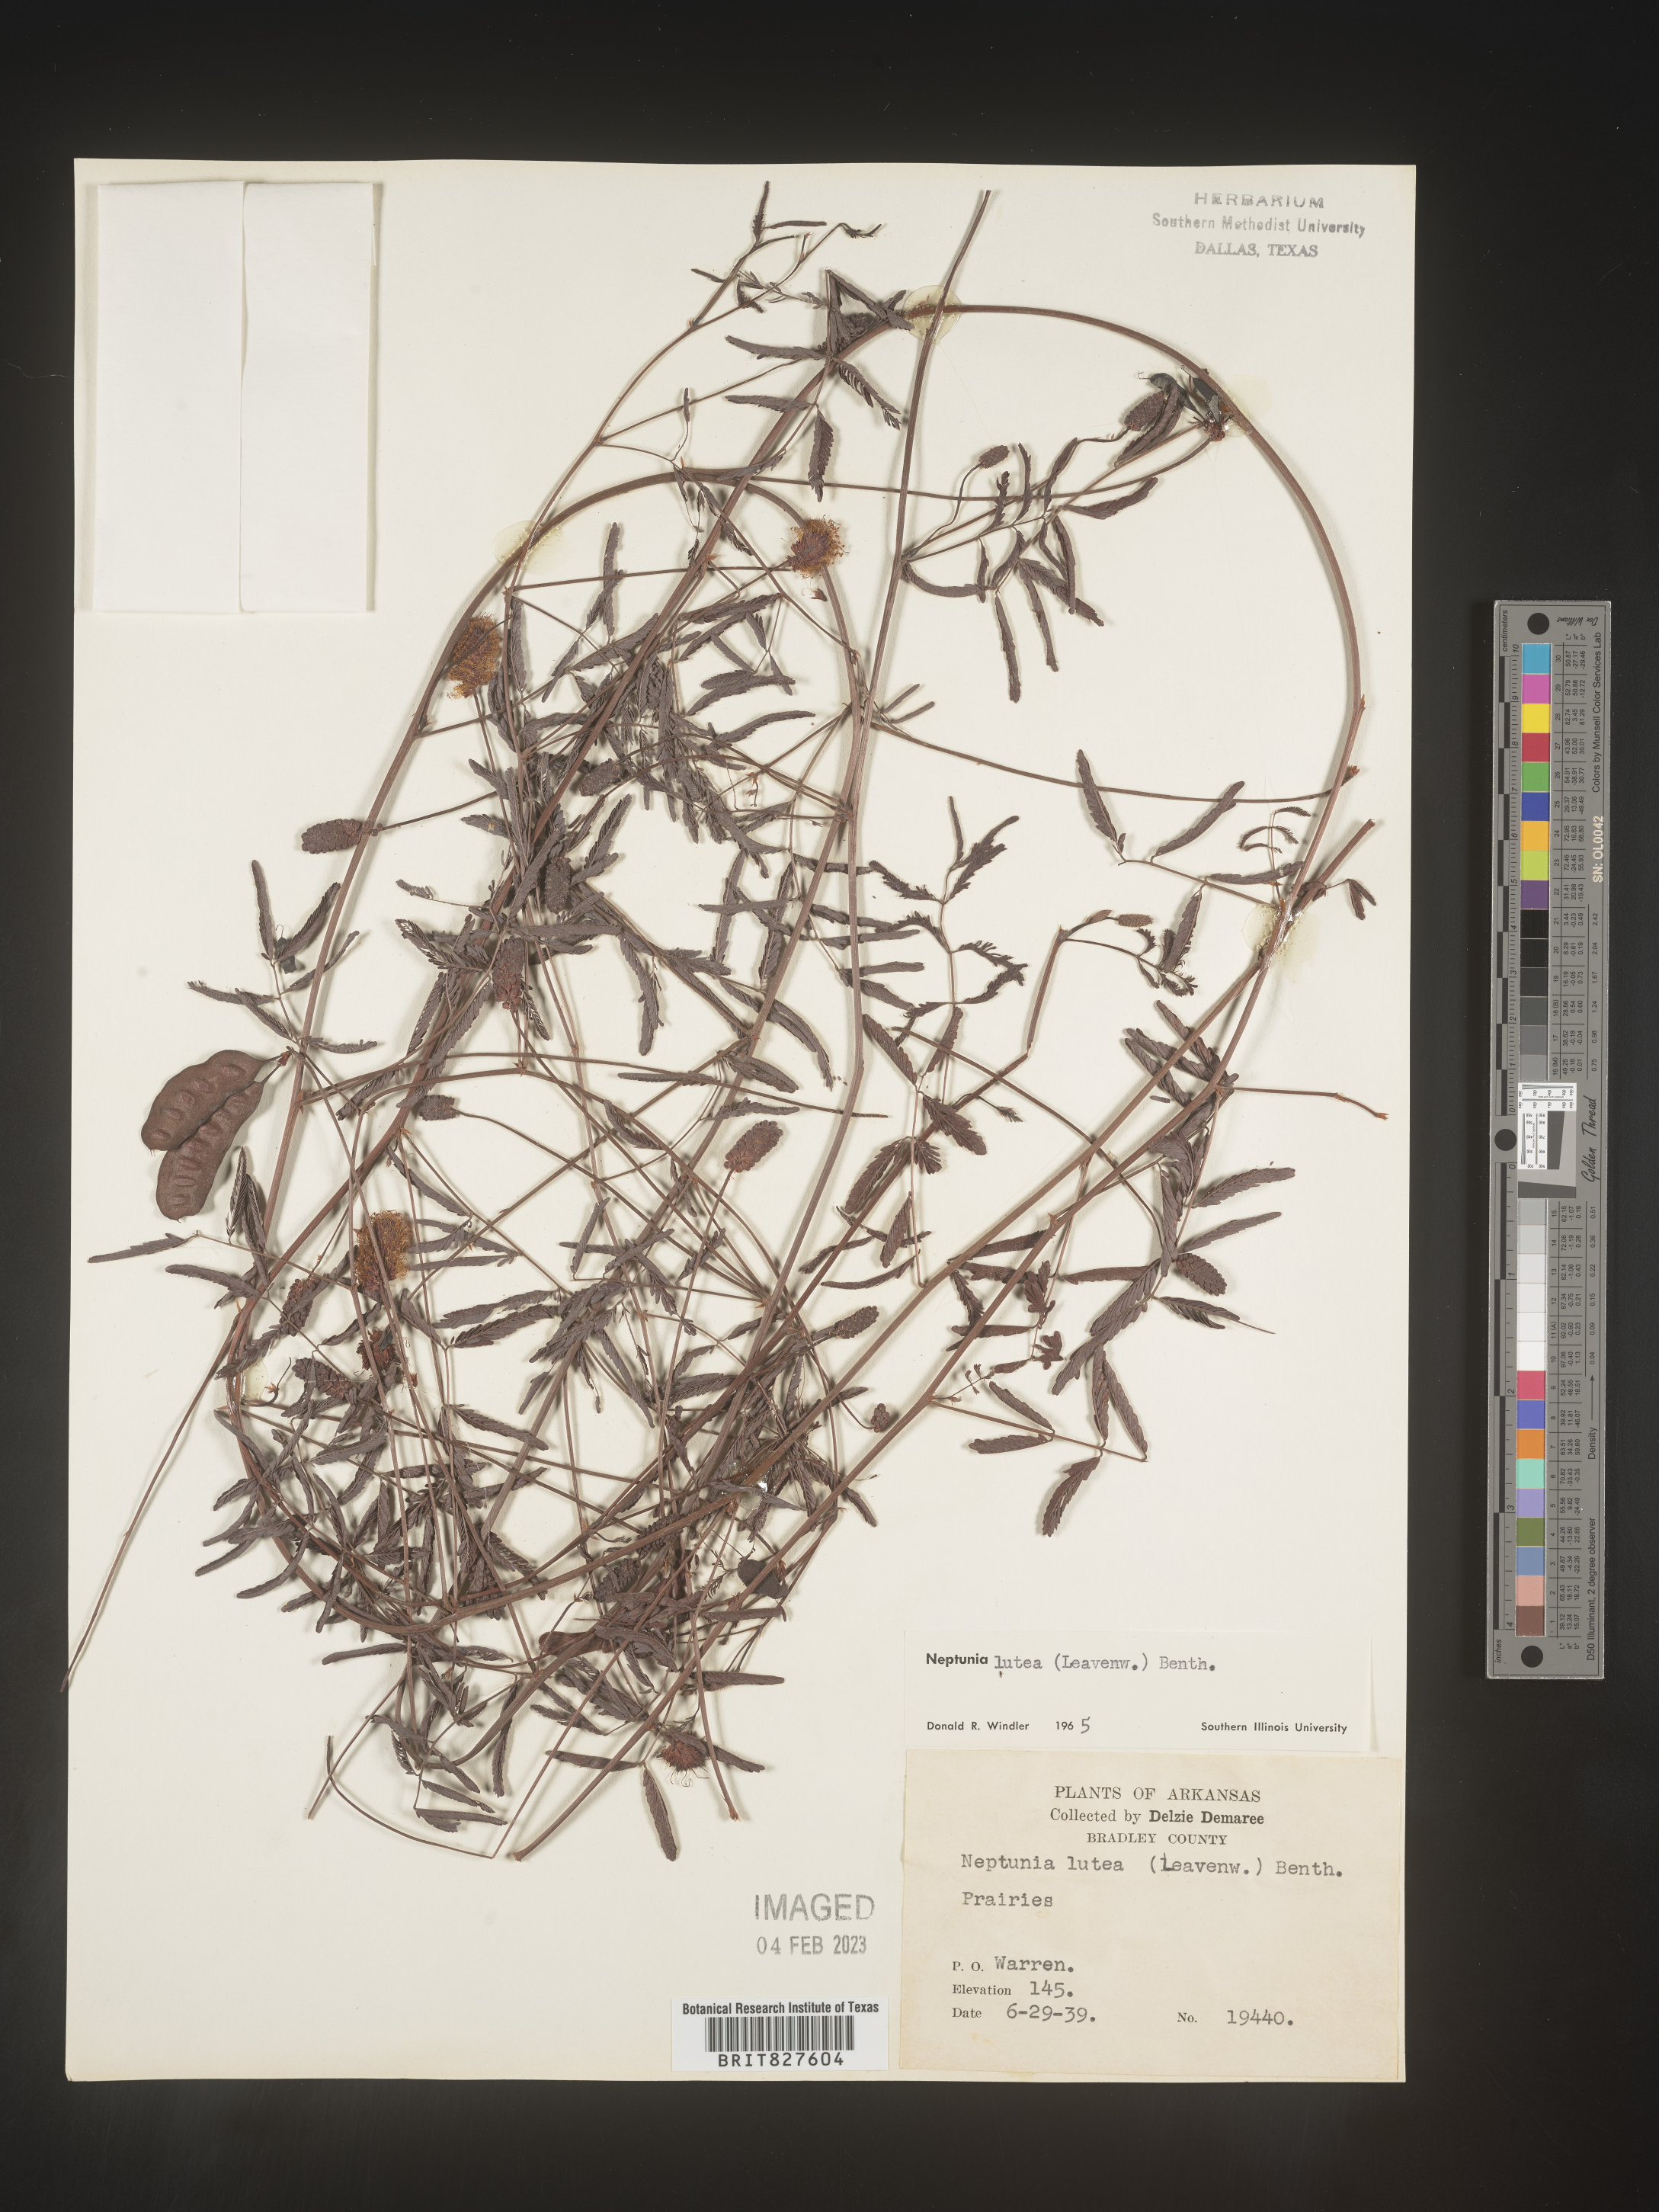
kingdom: Plantae
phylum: Tracheophyta
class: Magnoliopsida
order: Fabales
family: Fabaceae
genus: Neptunia
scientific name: Neptunia lutea
